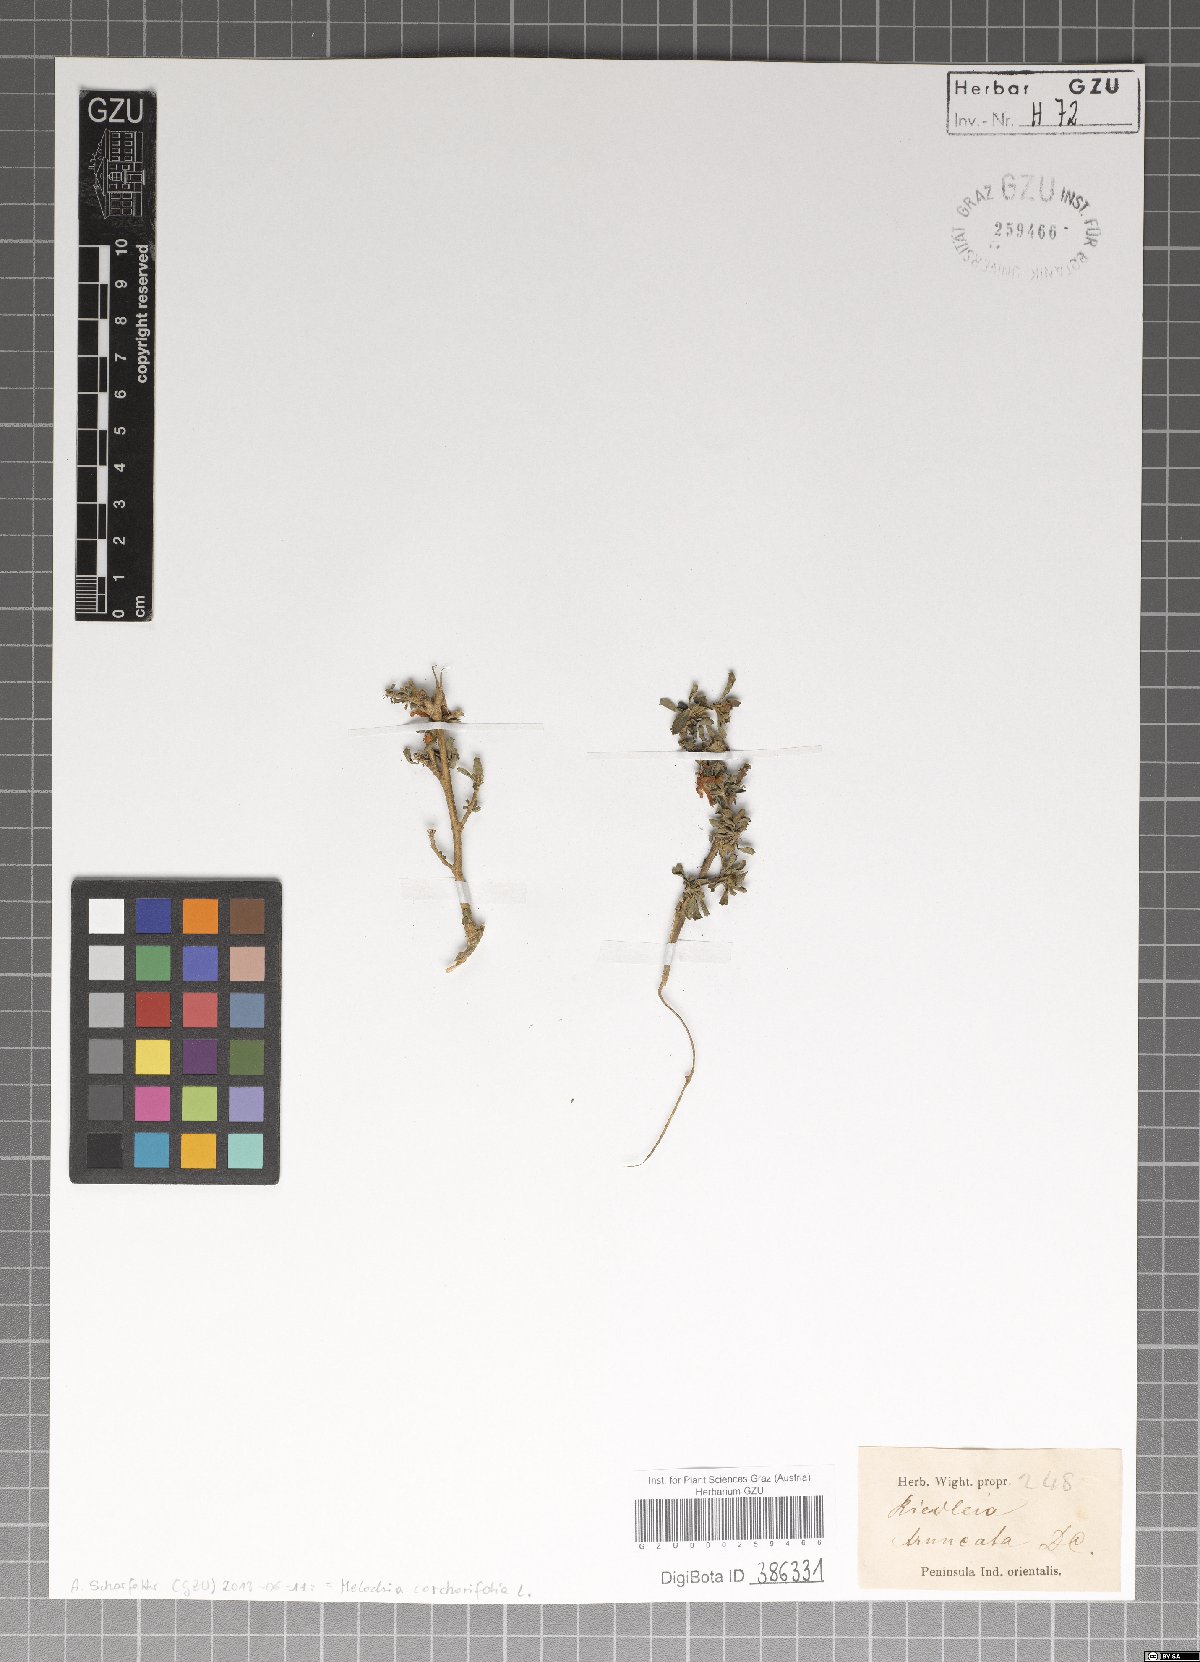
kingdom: Plantae
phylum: Tracheophyta
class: Magnoliopsida
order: Malvales
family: Malvaceae
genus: Melochia
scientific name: Melochia corchorifolia
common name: Chocolateweed
